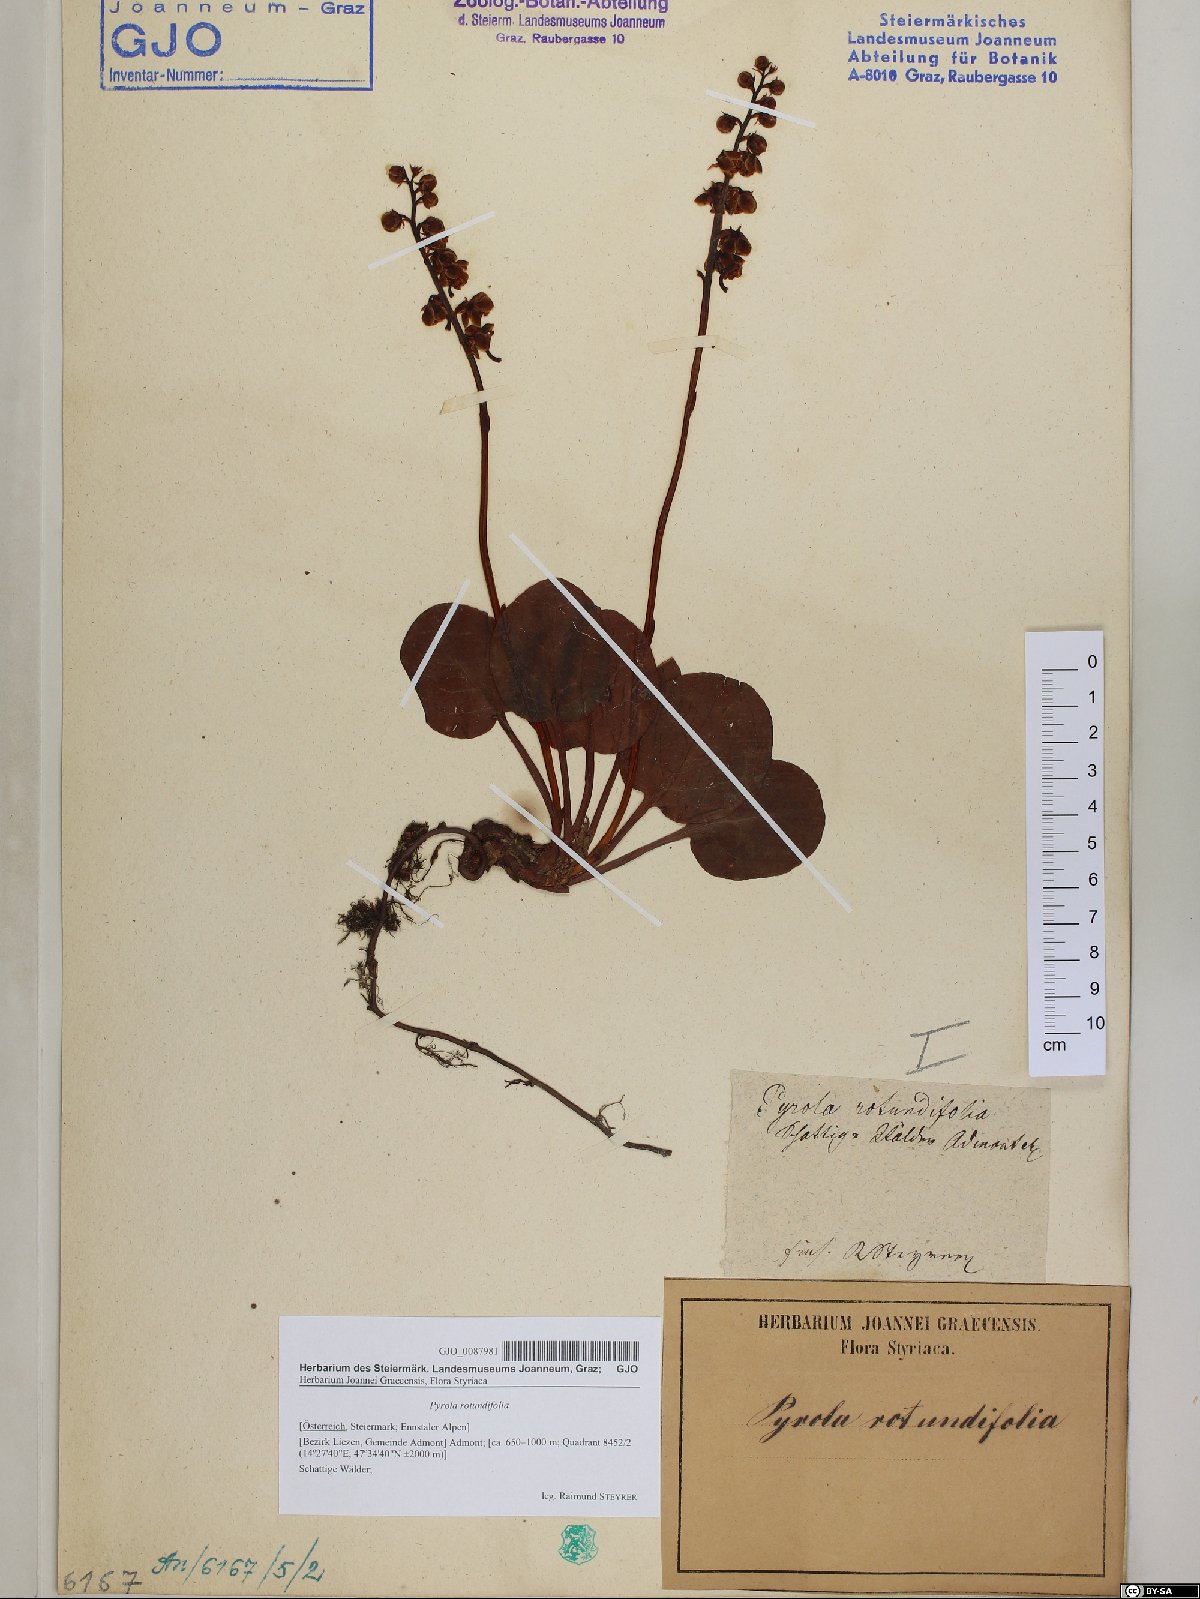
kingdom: Plantae
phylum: Tracheophyta
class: Magnoliopsida
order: Ericales
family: Ericaceae
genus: Pyrola
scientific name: Pyrola rotundifolia
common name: Round-leaved wintergreen
